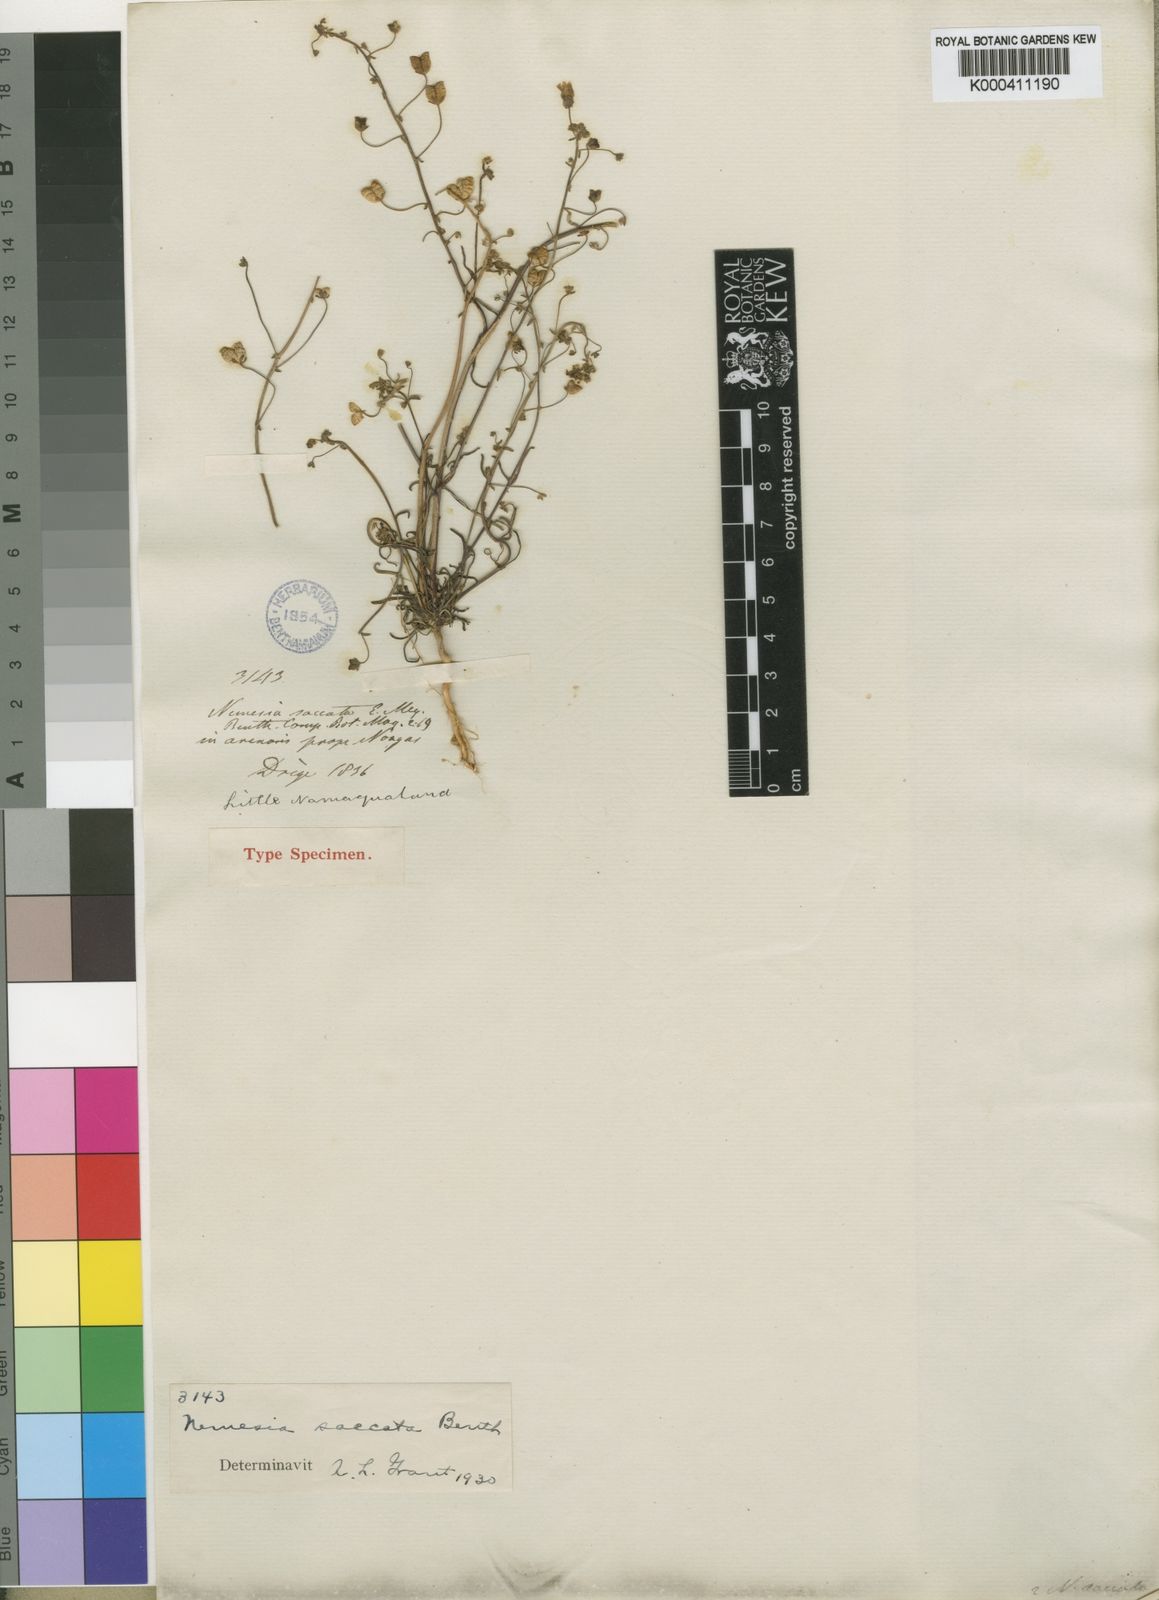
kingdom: Plantae
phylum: Tracheophyta
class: Magnoliopsida
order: Lamiales
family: Scrophulariaceae
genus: Nemesia
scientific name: Nemesia saccata
